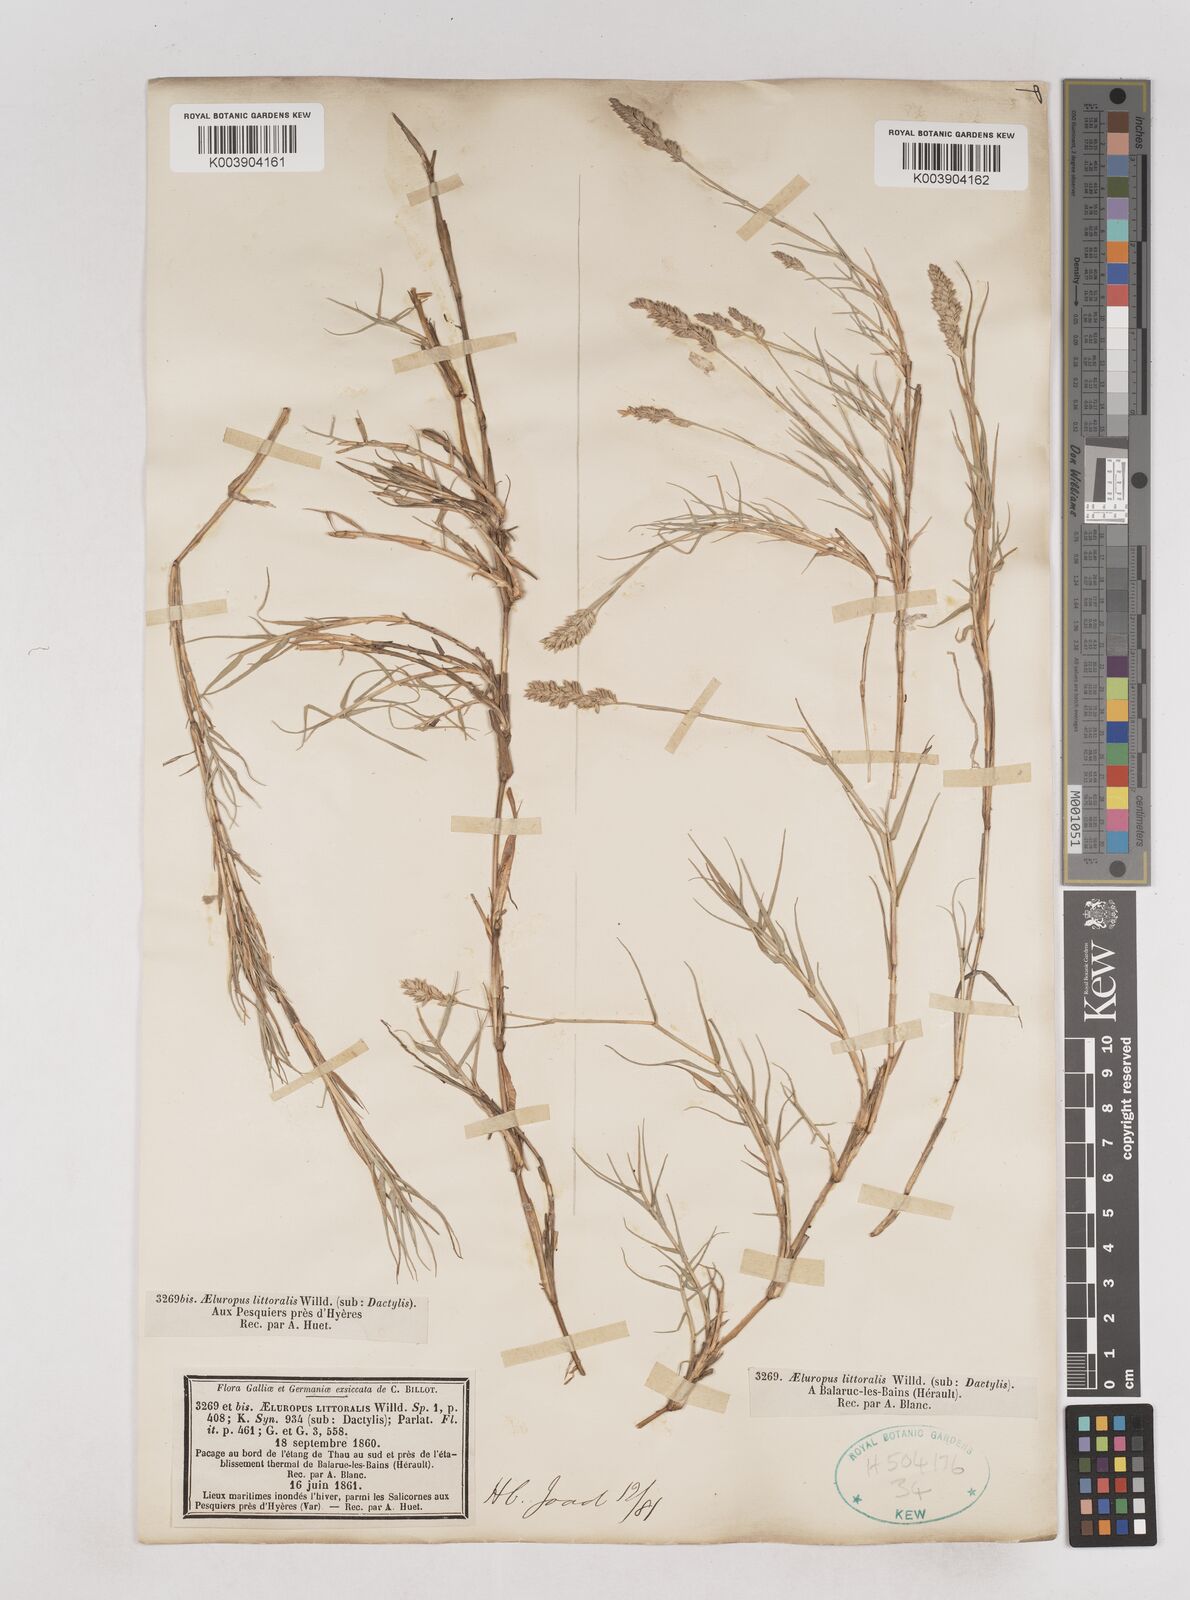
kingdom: Plantae
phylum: Tracheophyta
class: Liliopsida
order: Poales
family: Poaceae
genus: Aeluropus
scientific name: Aeluropus littoralis
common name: Indian walnut
